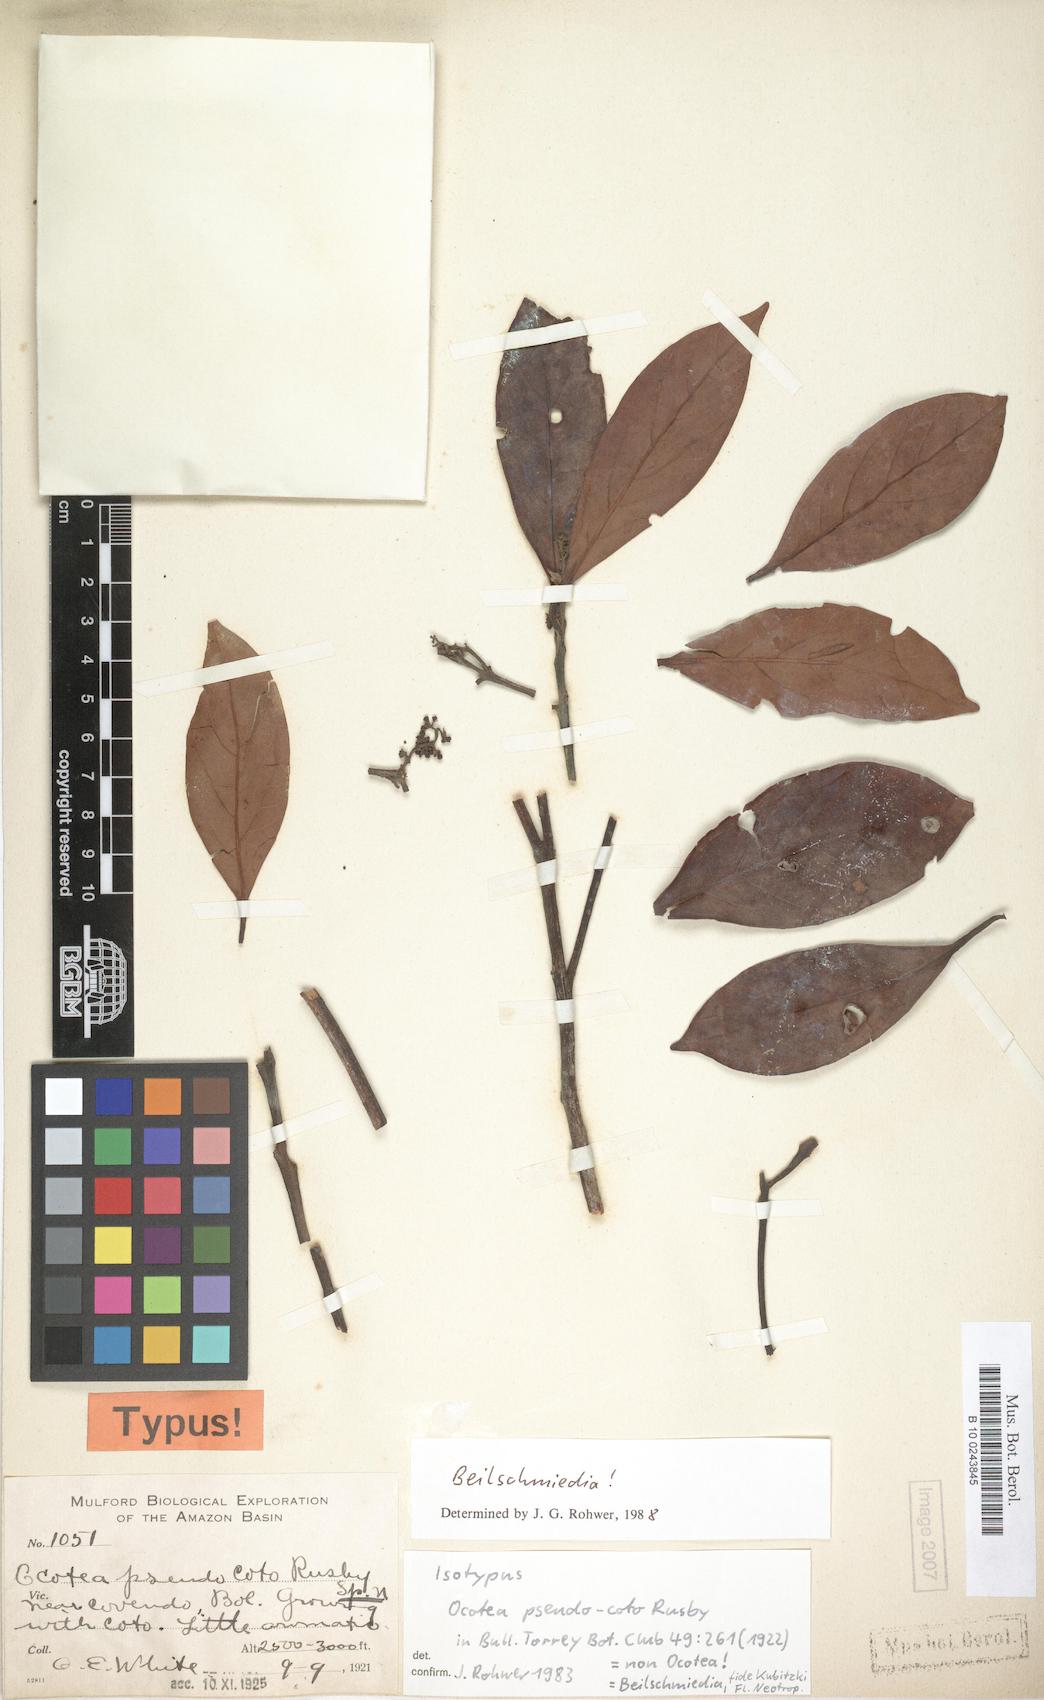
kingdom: Plantae
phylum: Tracheophyta
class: Magnoliopsida
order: Laurales
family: Lauraceae
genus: Beilschmiedia
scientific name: Beilschmiedia tovarensis
